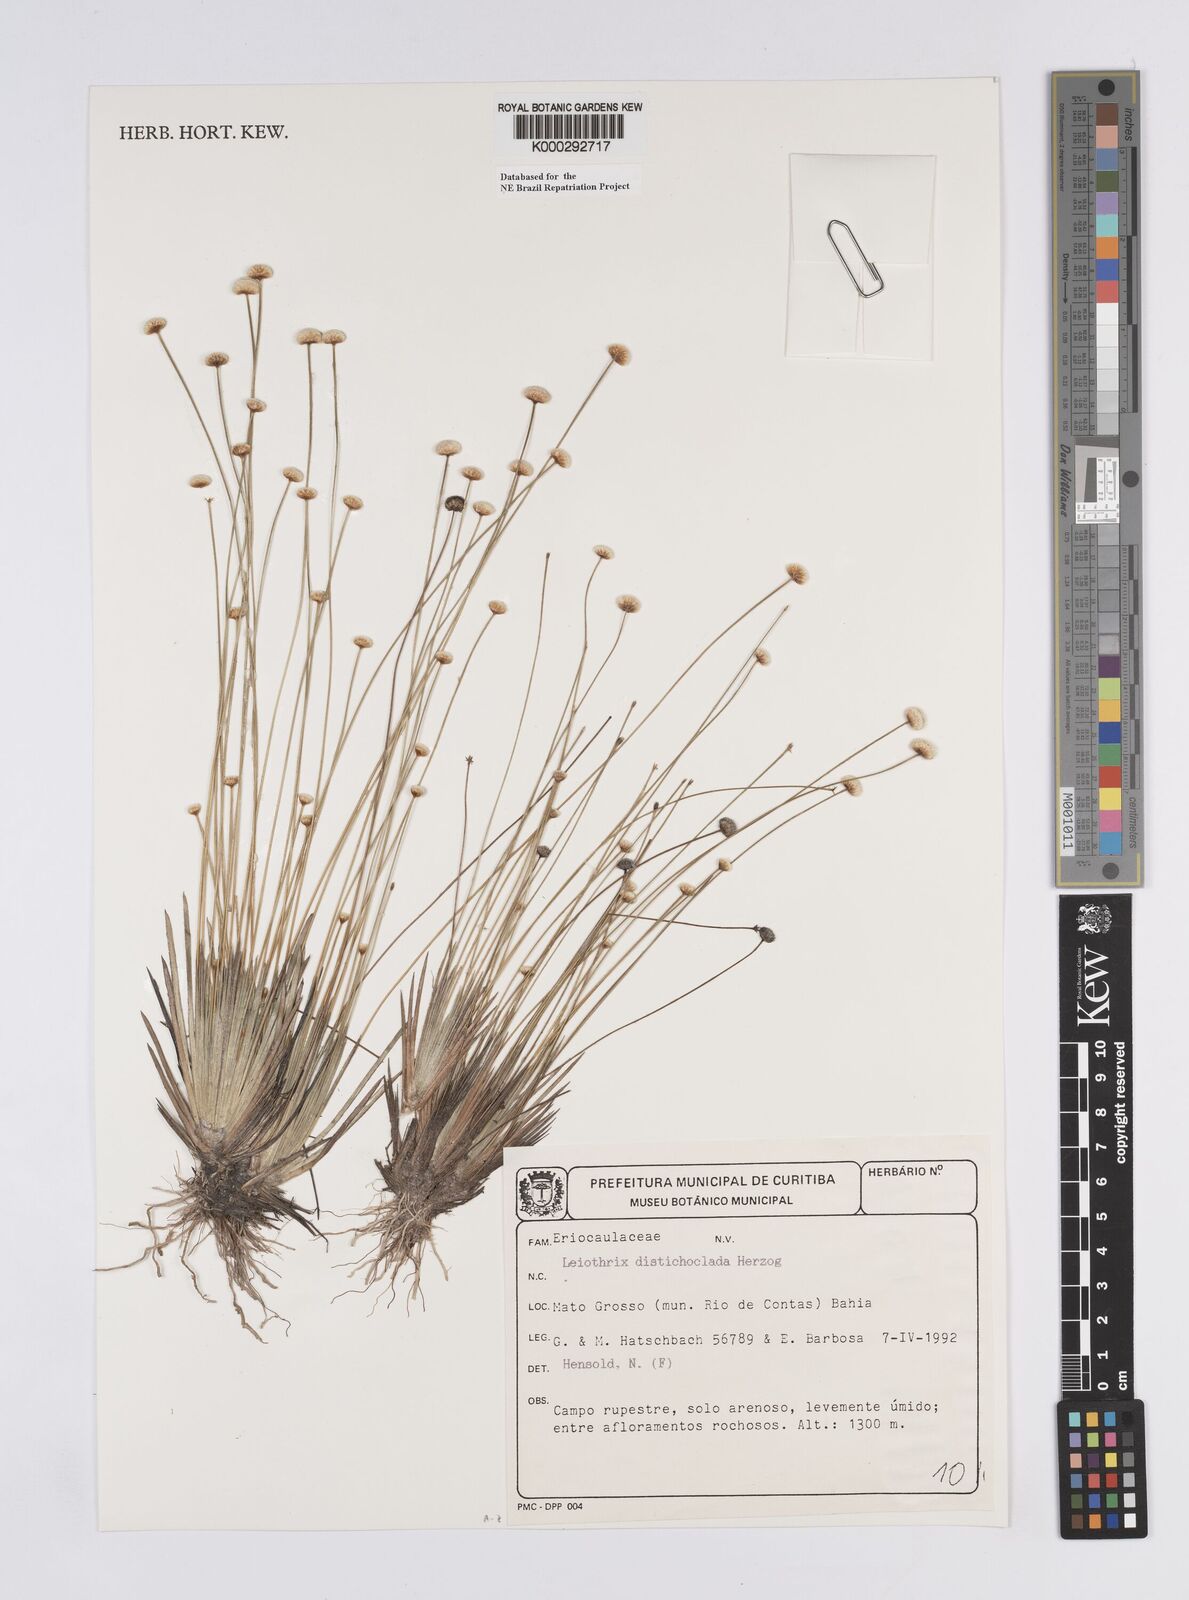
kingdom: Plantae
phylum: Tracheophyta
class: Liliopsida
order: Poales
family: Eriocaulaceae
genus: Leiothrix
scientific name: Leiothrix distichoclada
